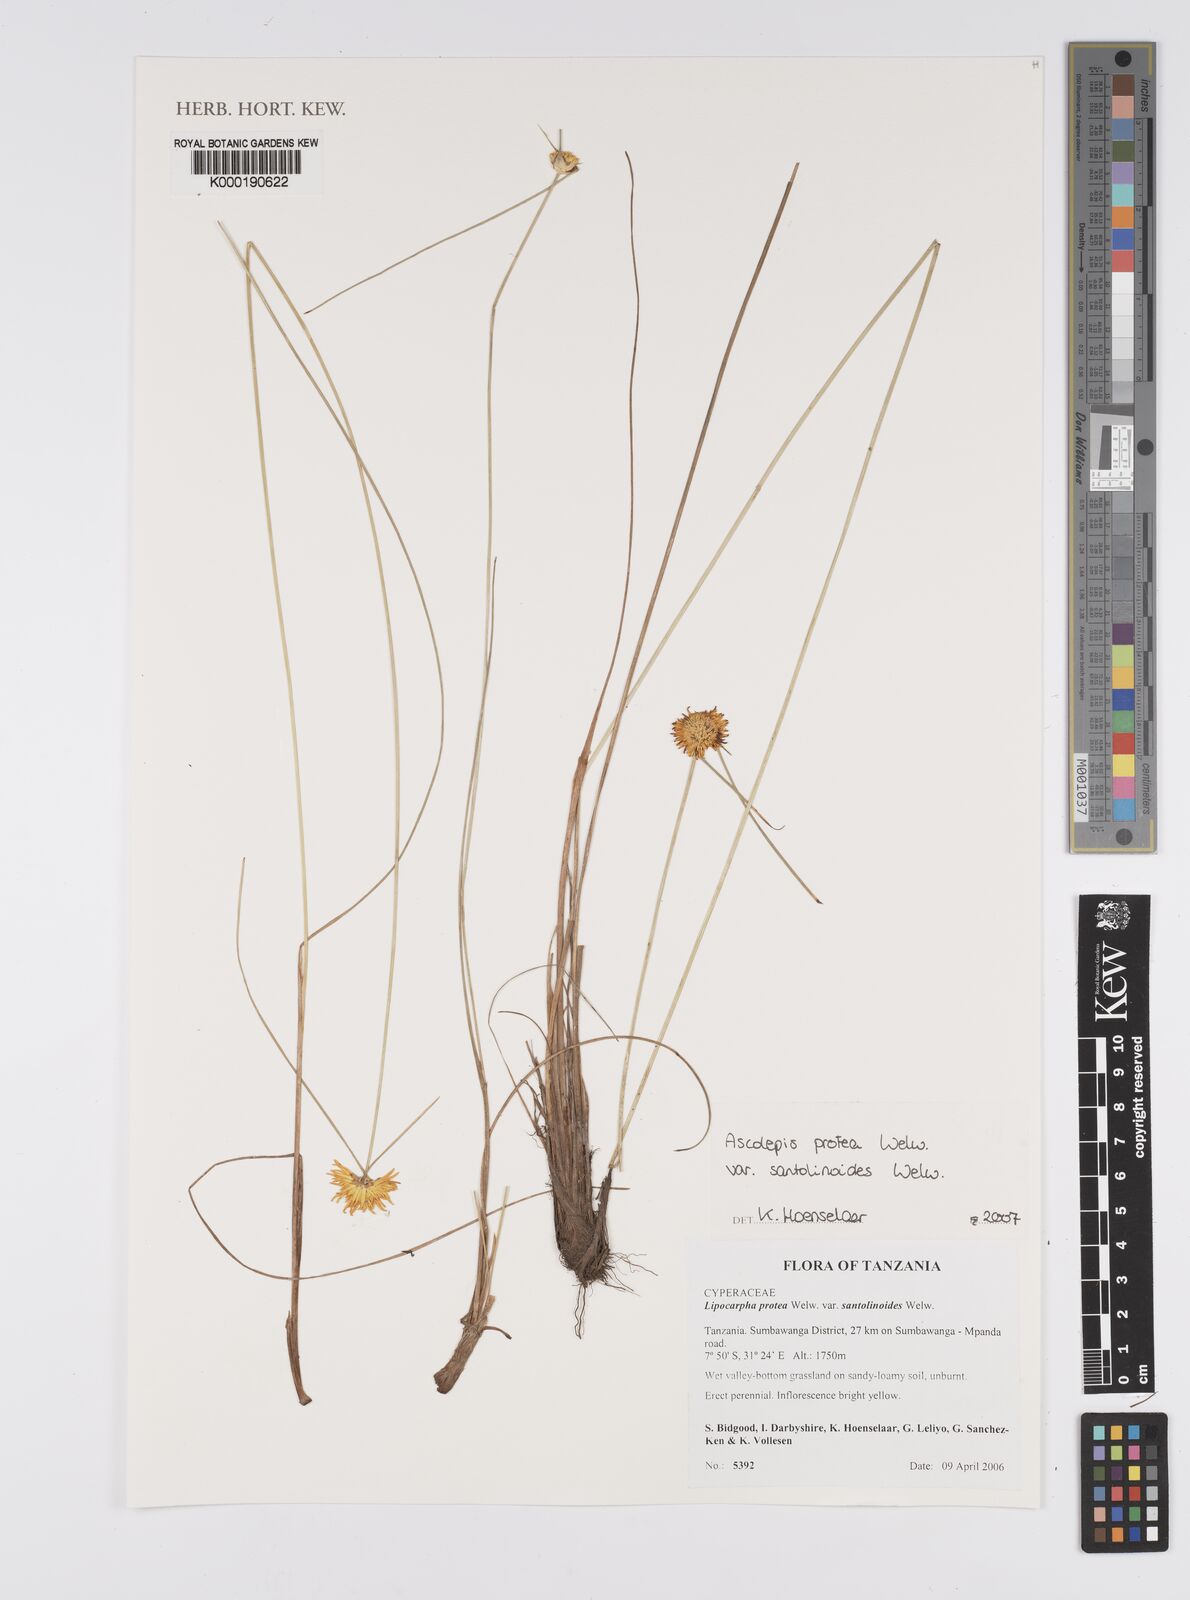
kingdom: Plantae
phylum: Tracheophyta
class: Liliopsida
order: Poales
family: Cyperaceae
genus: Cyperus
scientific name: Cyperus
